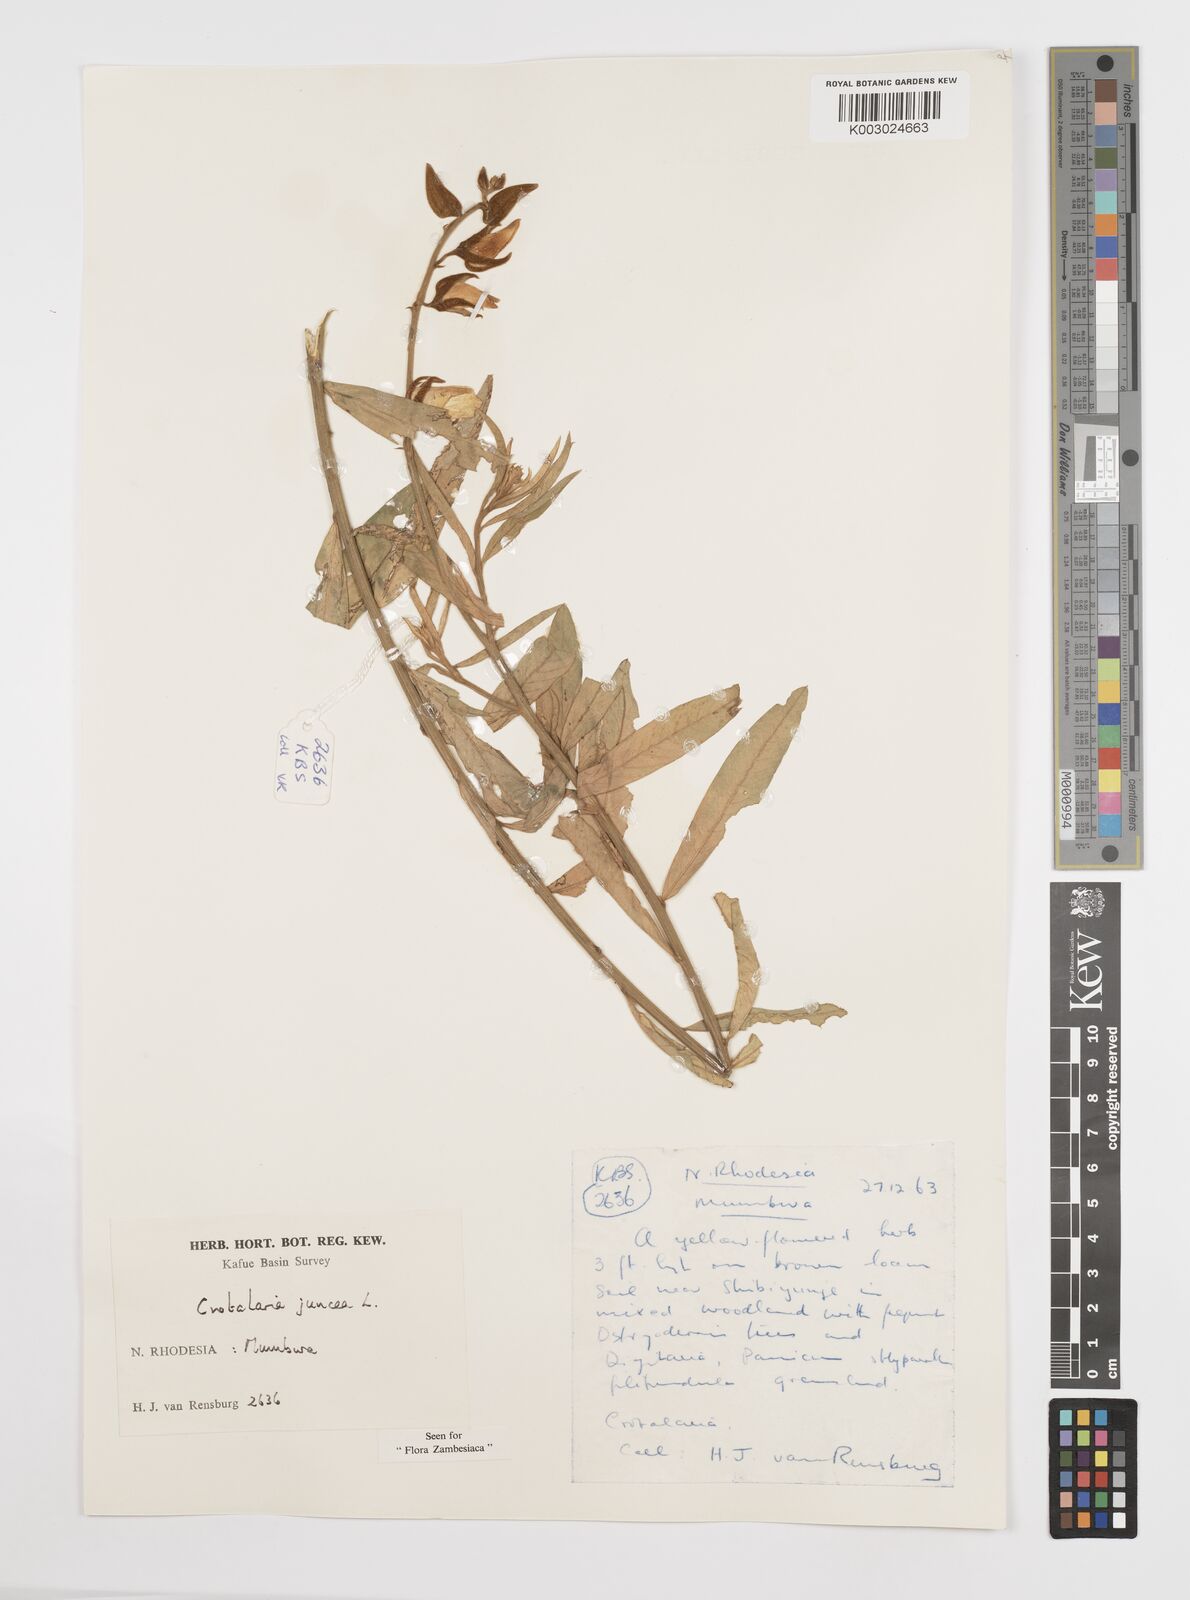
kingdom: Plantae
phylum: Tracheophyta
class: Magnoliopsida
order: Fabales
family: Fabaceae
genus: Crotalaria
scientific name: Crotalaria juncea
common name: Sunn hemp
